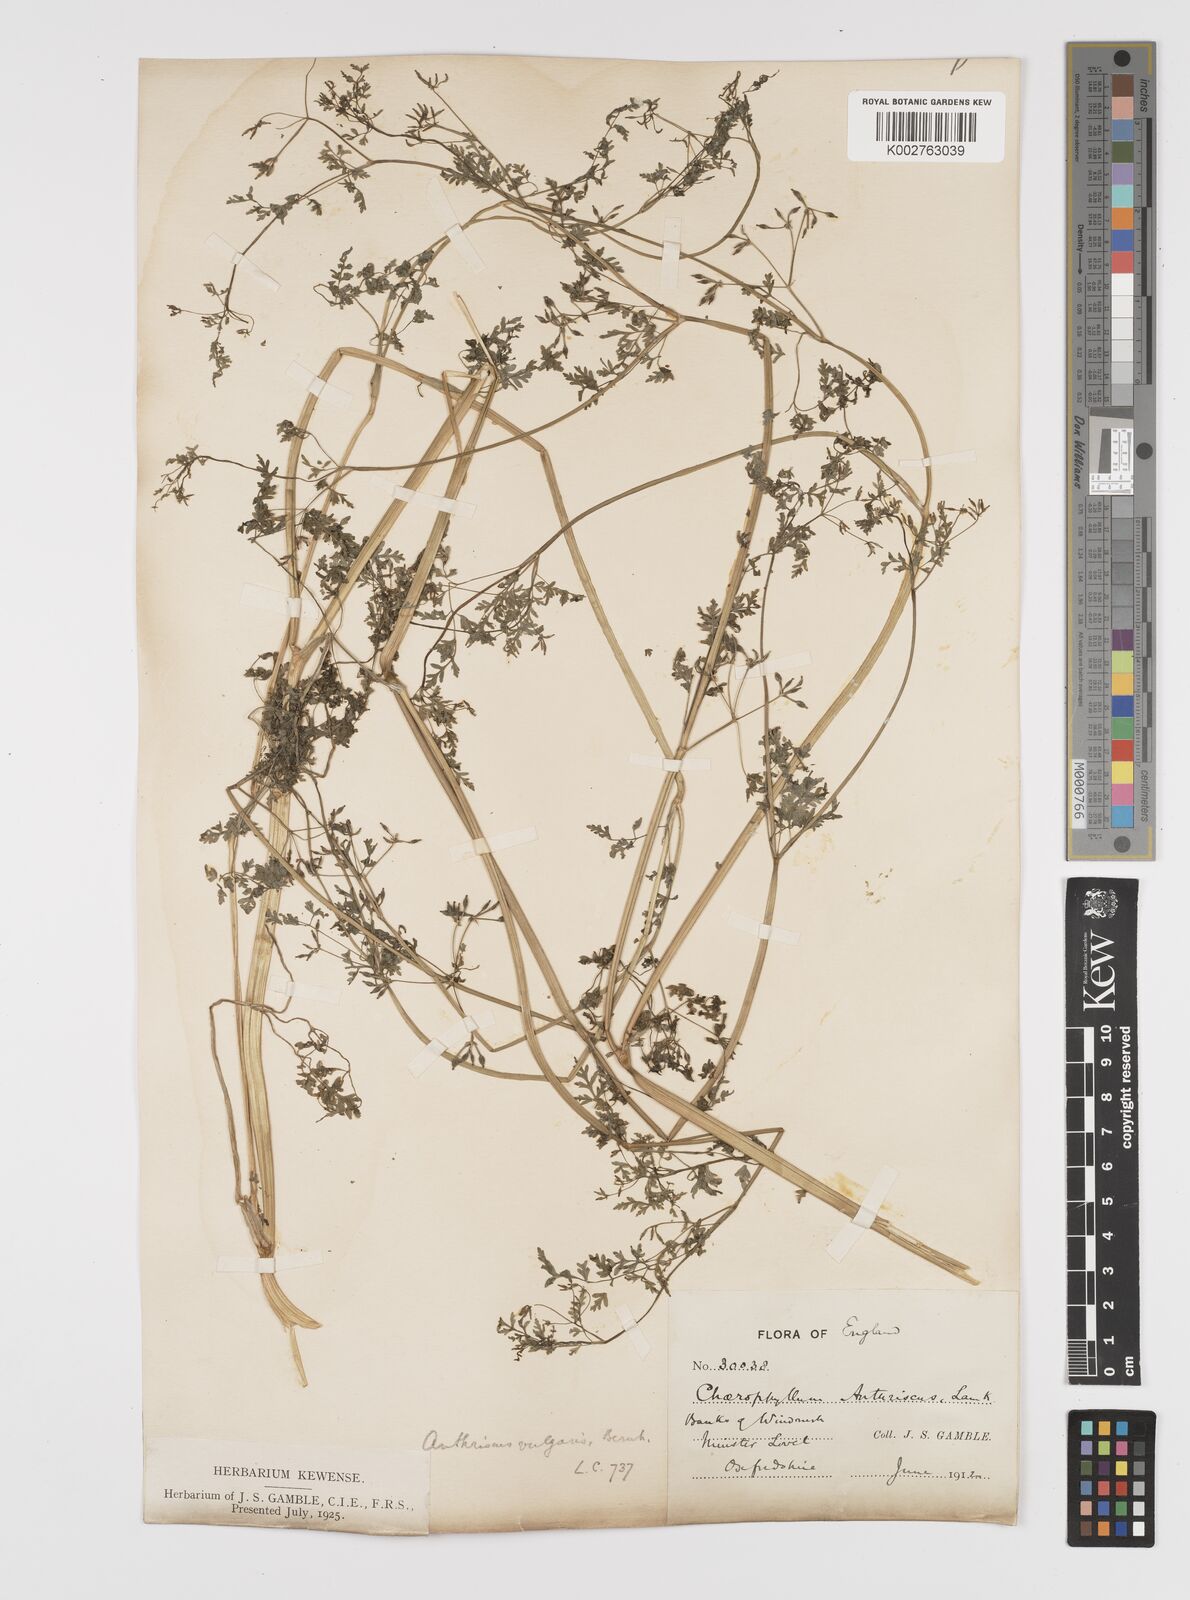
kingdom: Plantae
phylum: Tracheophyta
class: Magnoliopsida
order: Apiales
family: Apiaceae
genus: Anthriscus
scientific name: Anthriscus caucalis
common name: Bur chervil
